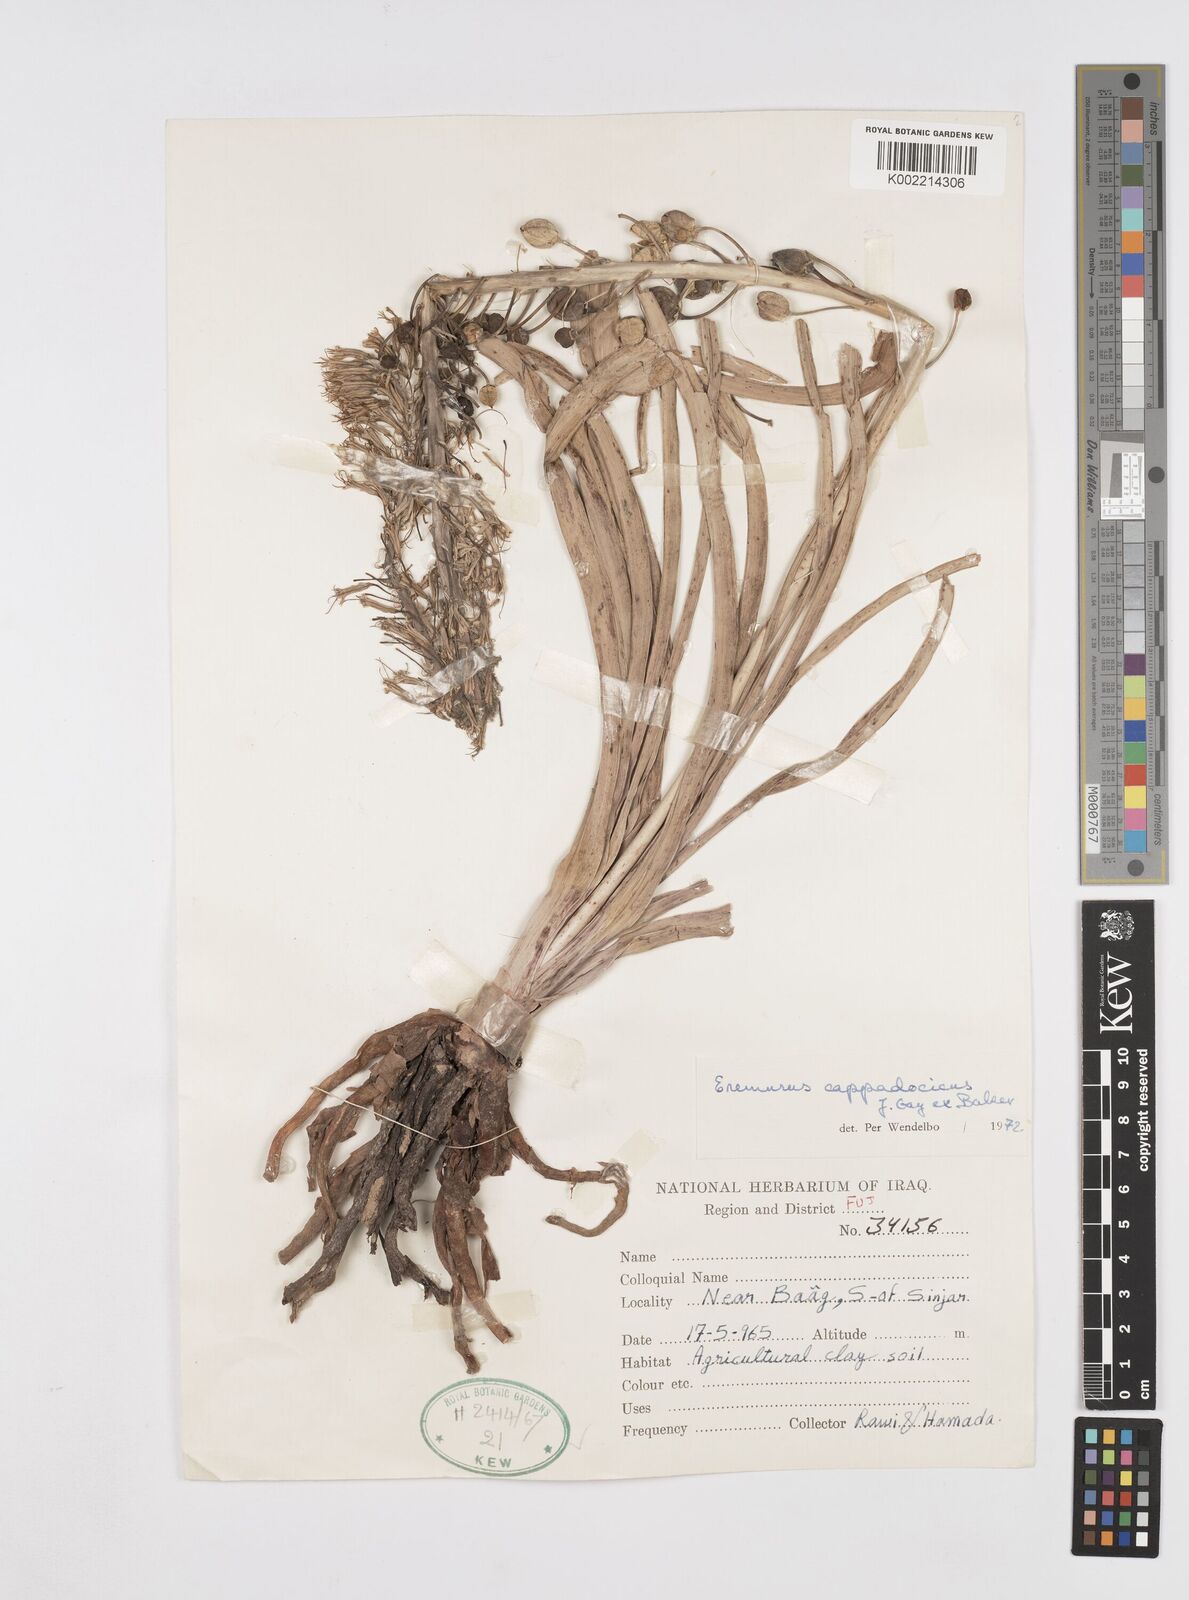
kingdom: Plantae
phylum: Tracheophyta
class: Liliopsida
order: Asparagales
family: Asphodelaceae
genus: Eremurus
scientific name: Eremurus cappadocicus
